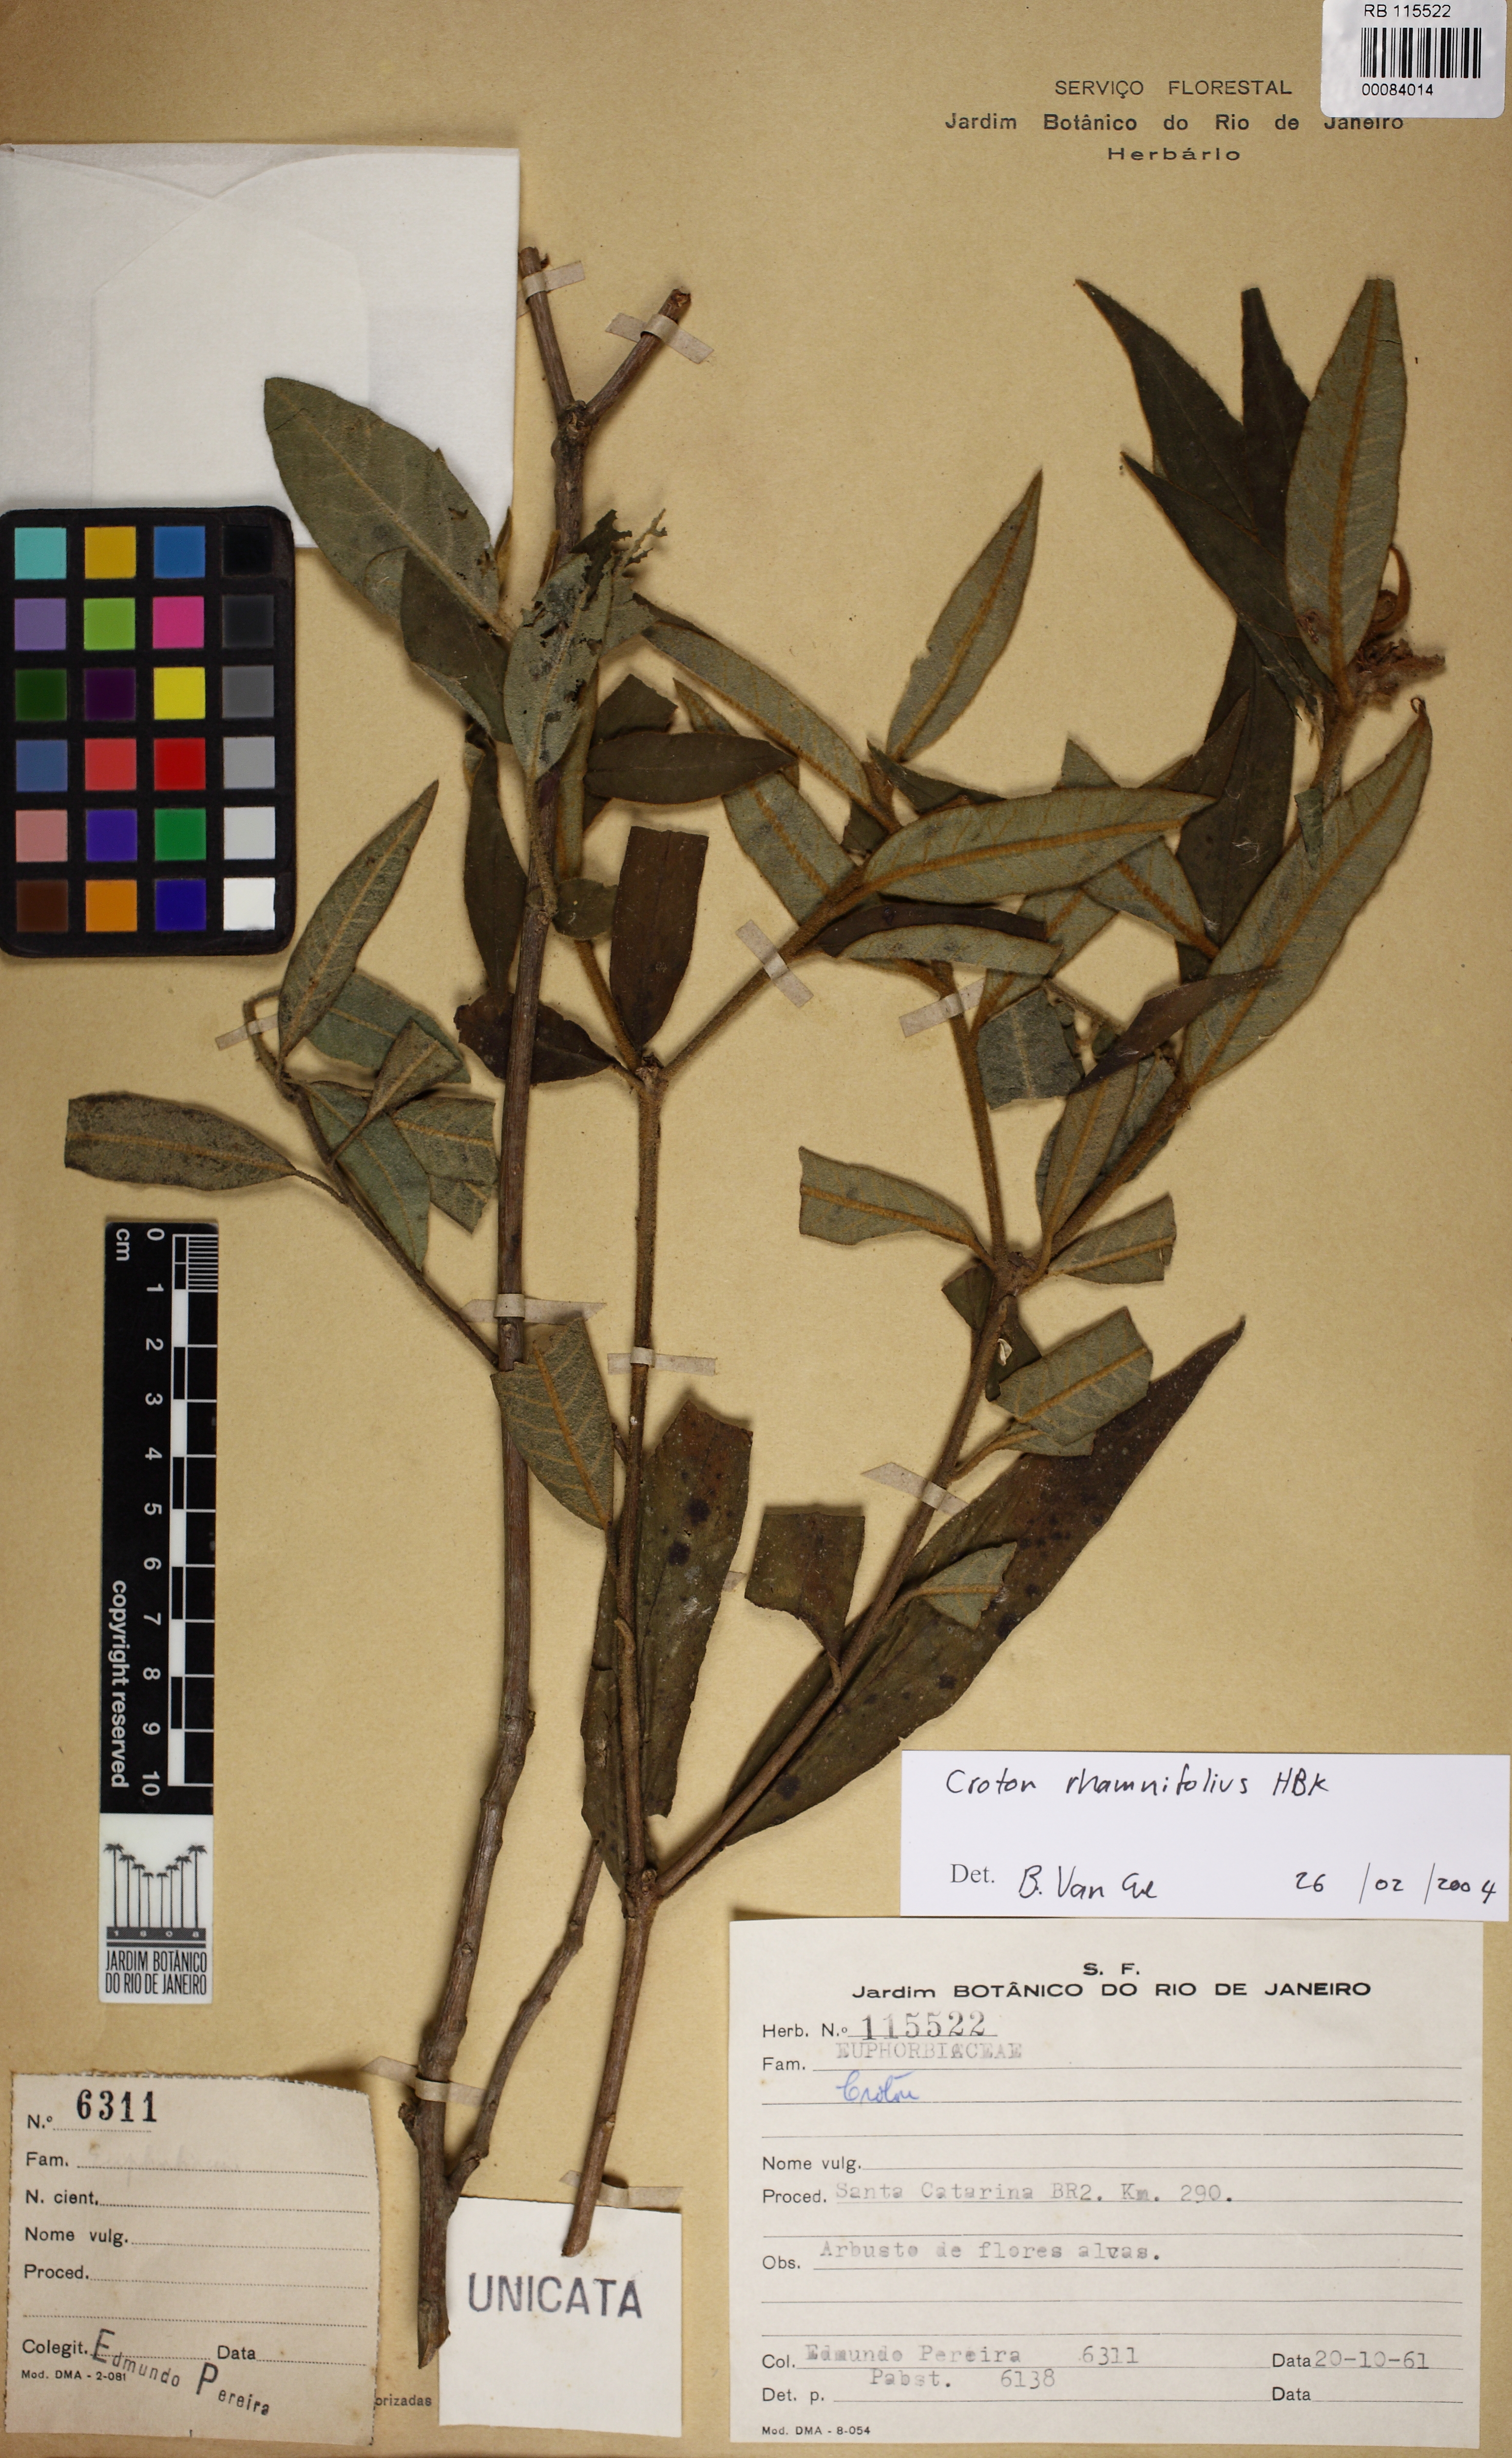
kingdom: Plantae
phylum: Tracheophyta
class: Magnoliopsida
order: Malpighiales
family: Euphorbiaceae
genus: Croton
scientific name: Croton reitzii
